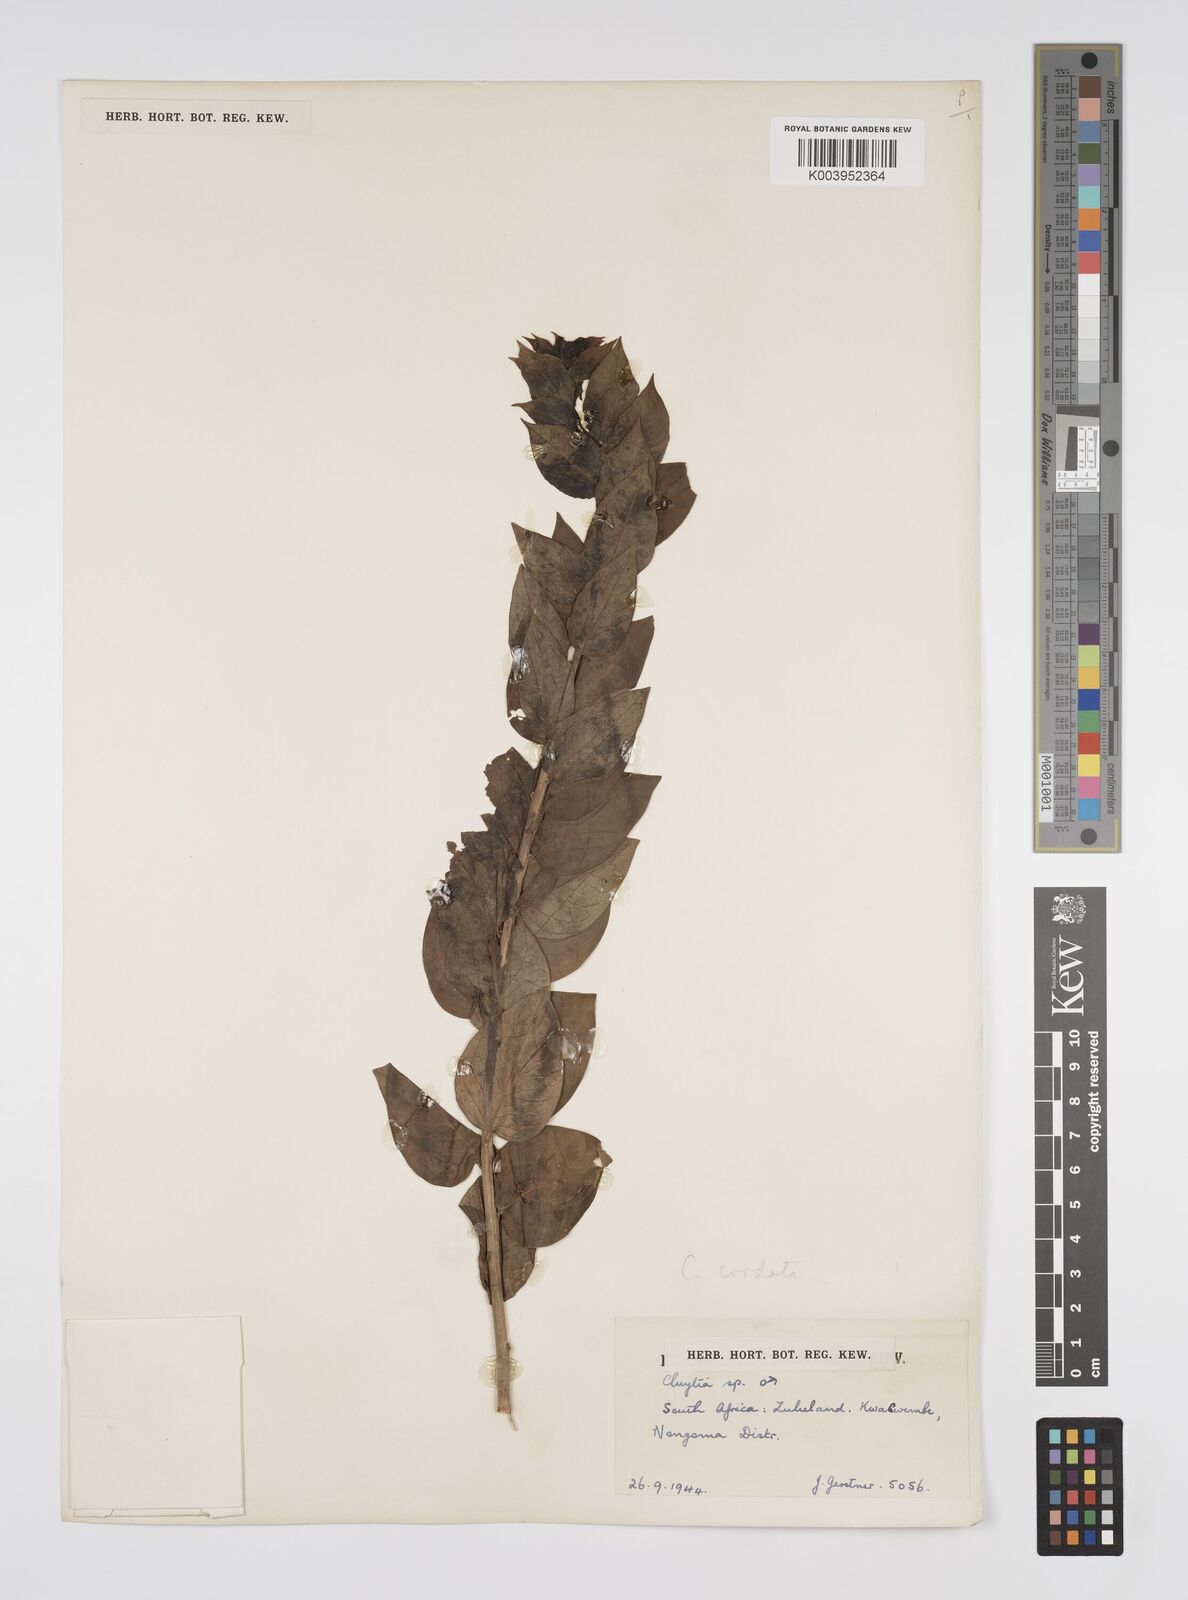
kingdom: Plantae
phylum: Tracheophyta
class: Magnoliopsida
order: Malpighiales
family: Peraceae
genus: Clutia
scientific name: Clutia cordata
